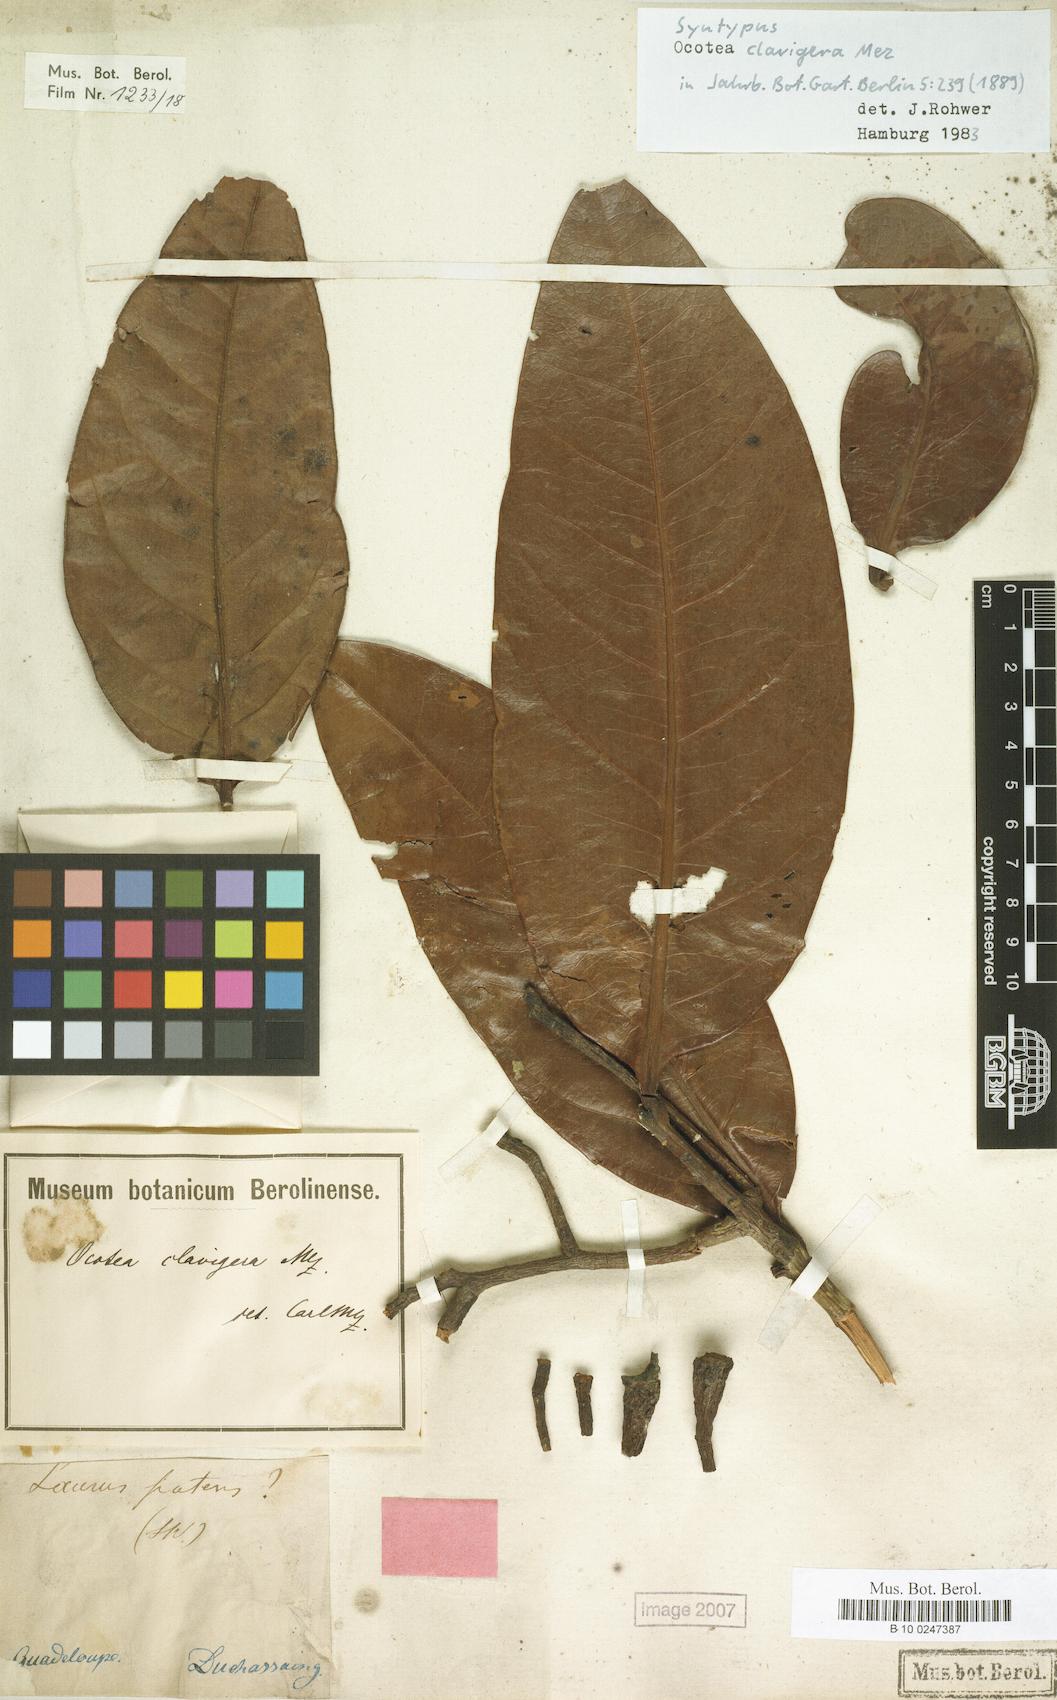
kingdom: Plantae
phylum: Tracheophyta
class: Magnoliopsida
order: Laurales
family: Lauraceae
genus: Ocotea
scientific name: Ocotea clavigera
